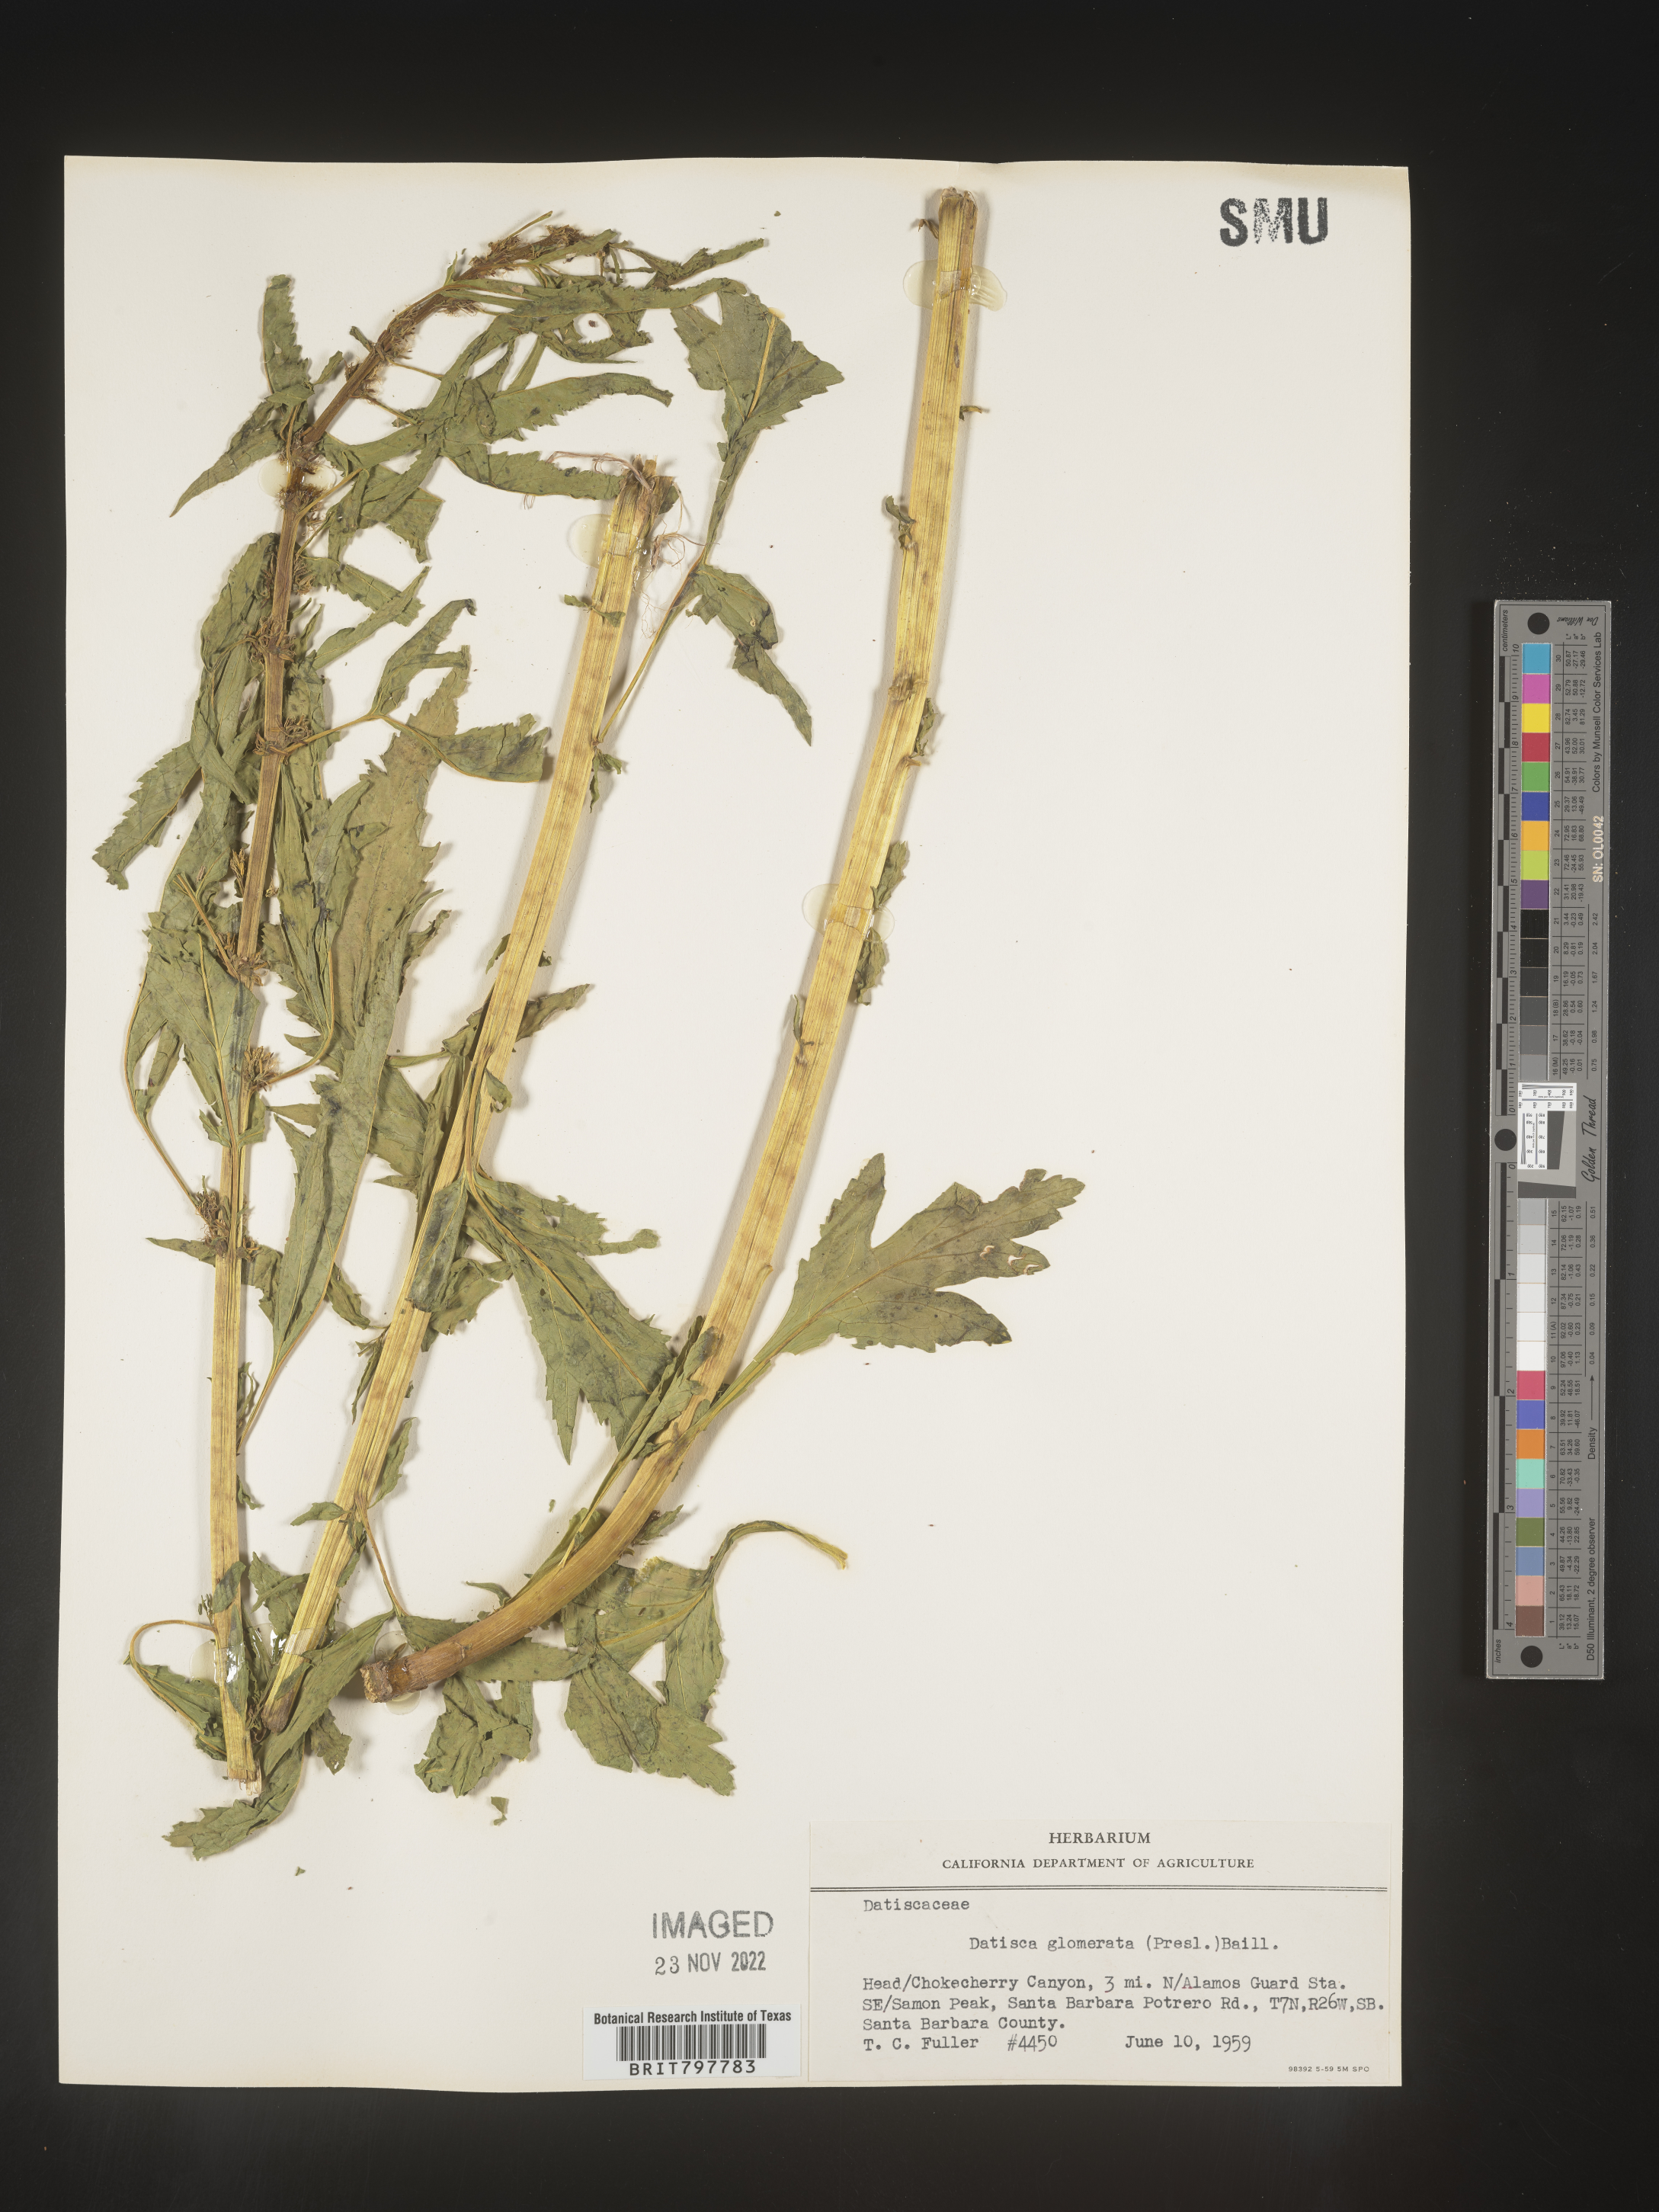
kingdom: Plantae
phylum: Tracheophyta
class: Magnoliopsida
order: Cucurbitales
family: Datiscaceae
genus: Datisca
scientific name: Datisca
